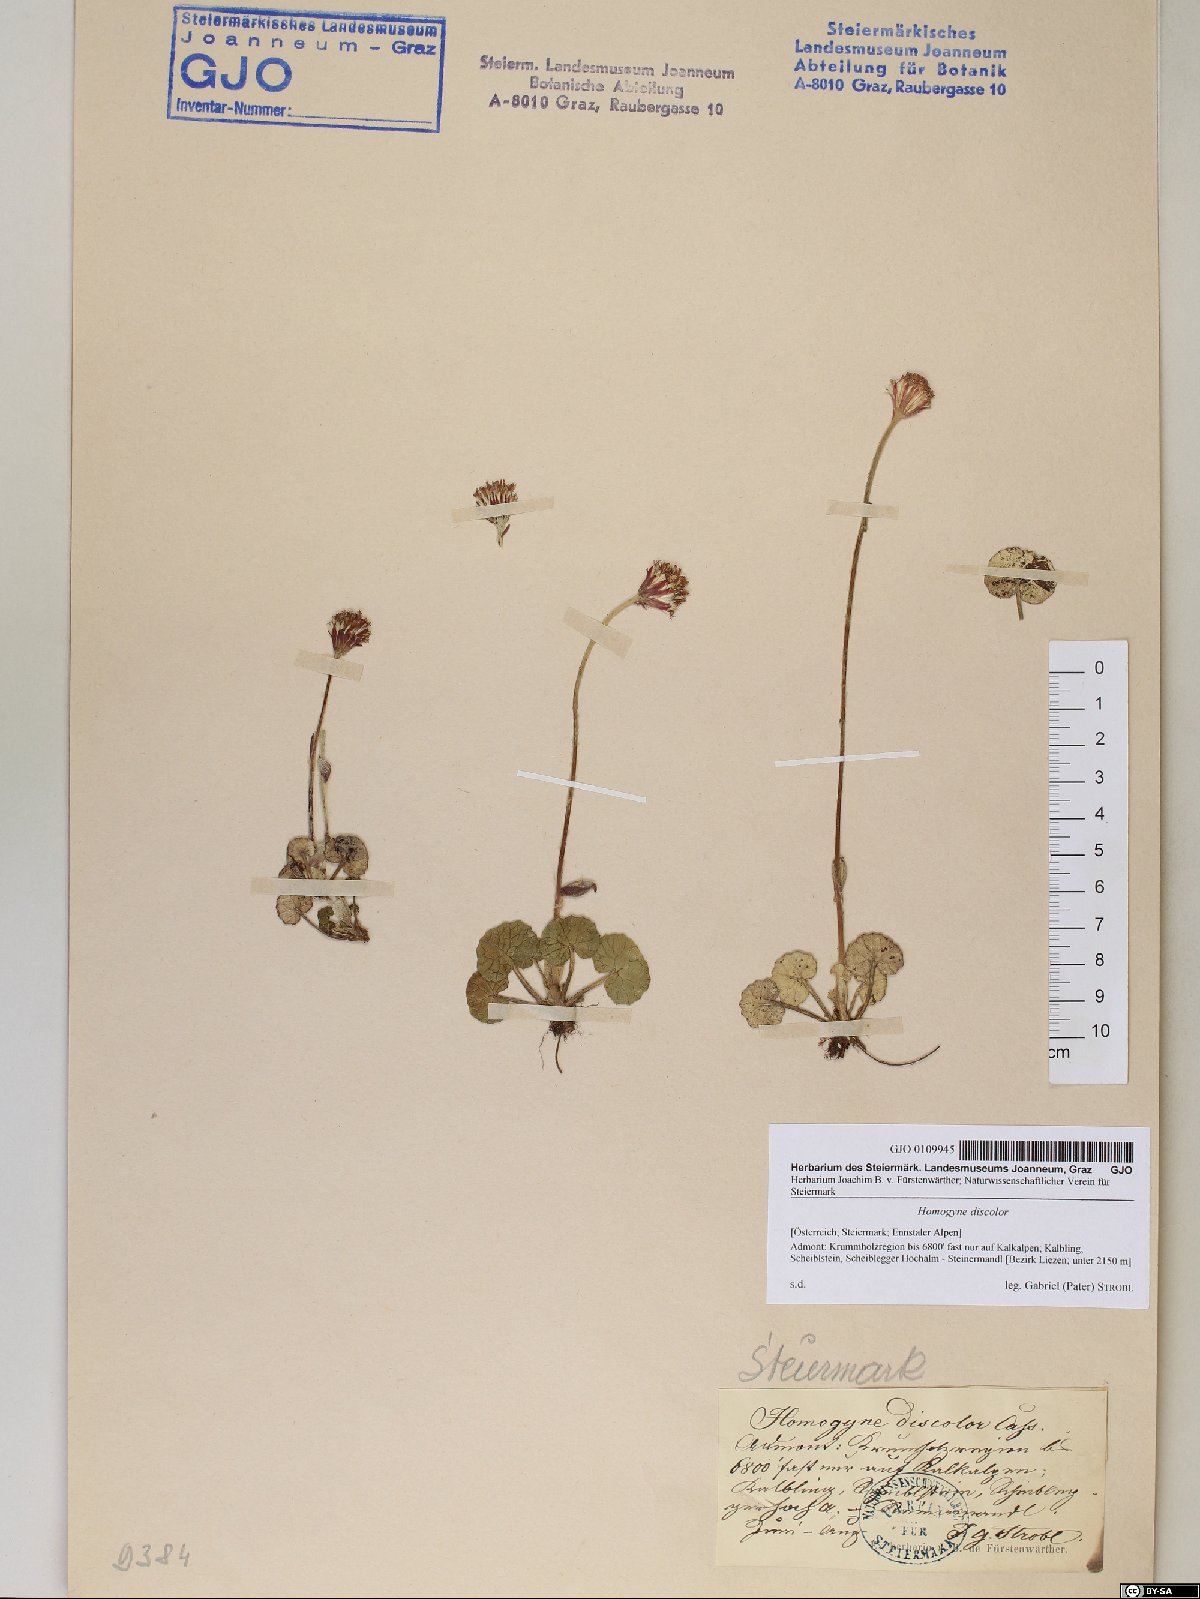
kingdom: Plantae
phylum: Tracheophyta
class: Magnoliopsida
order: Asterales
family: Asteraceae
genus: Homogyne
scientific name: Homogyne discolor
